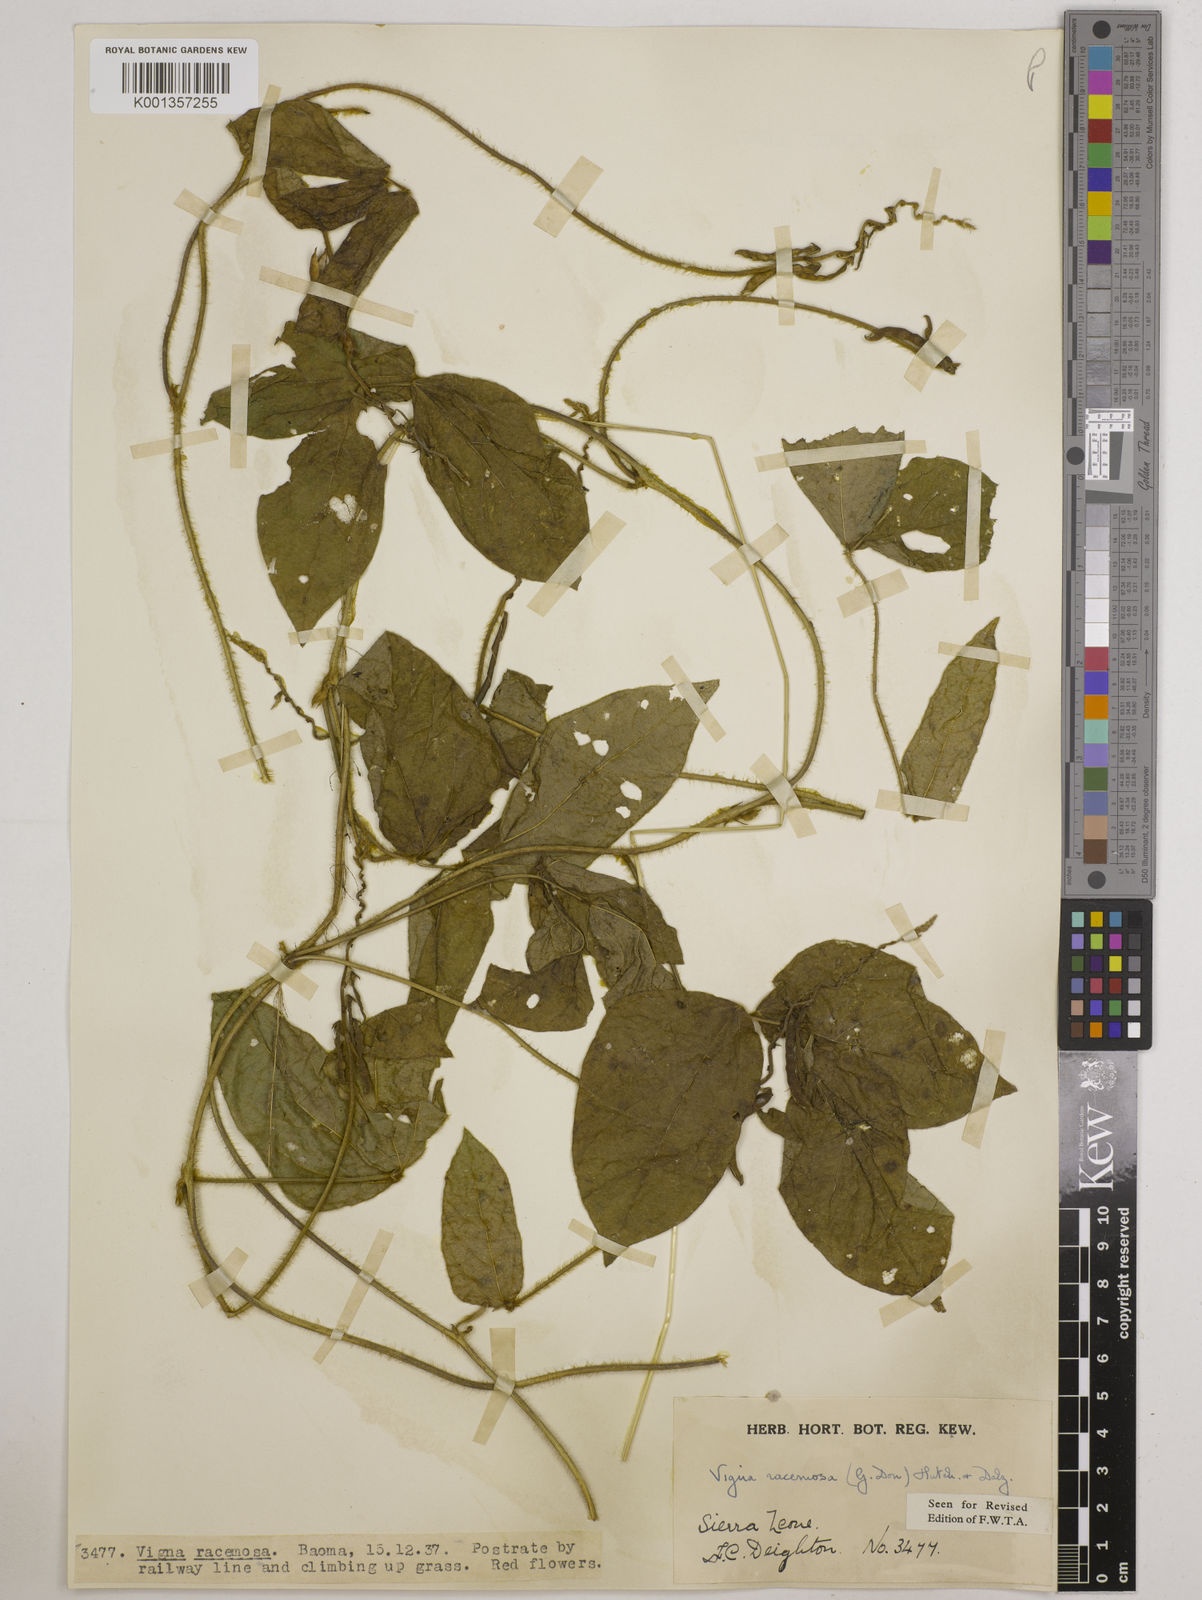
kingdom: Plantae
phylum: Tracheophyta
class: Magnoliopsida
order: Fabales
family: Fabaceae
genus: Vigna
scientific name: Vigna racemosa
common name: Beans not eaten
